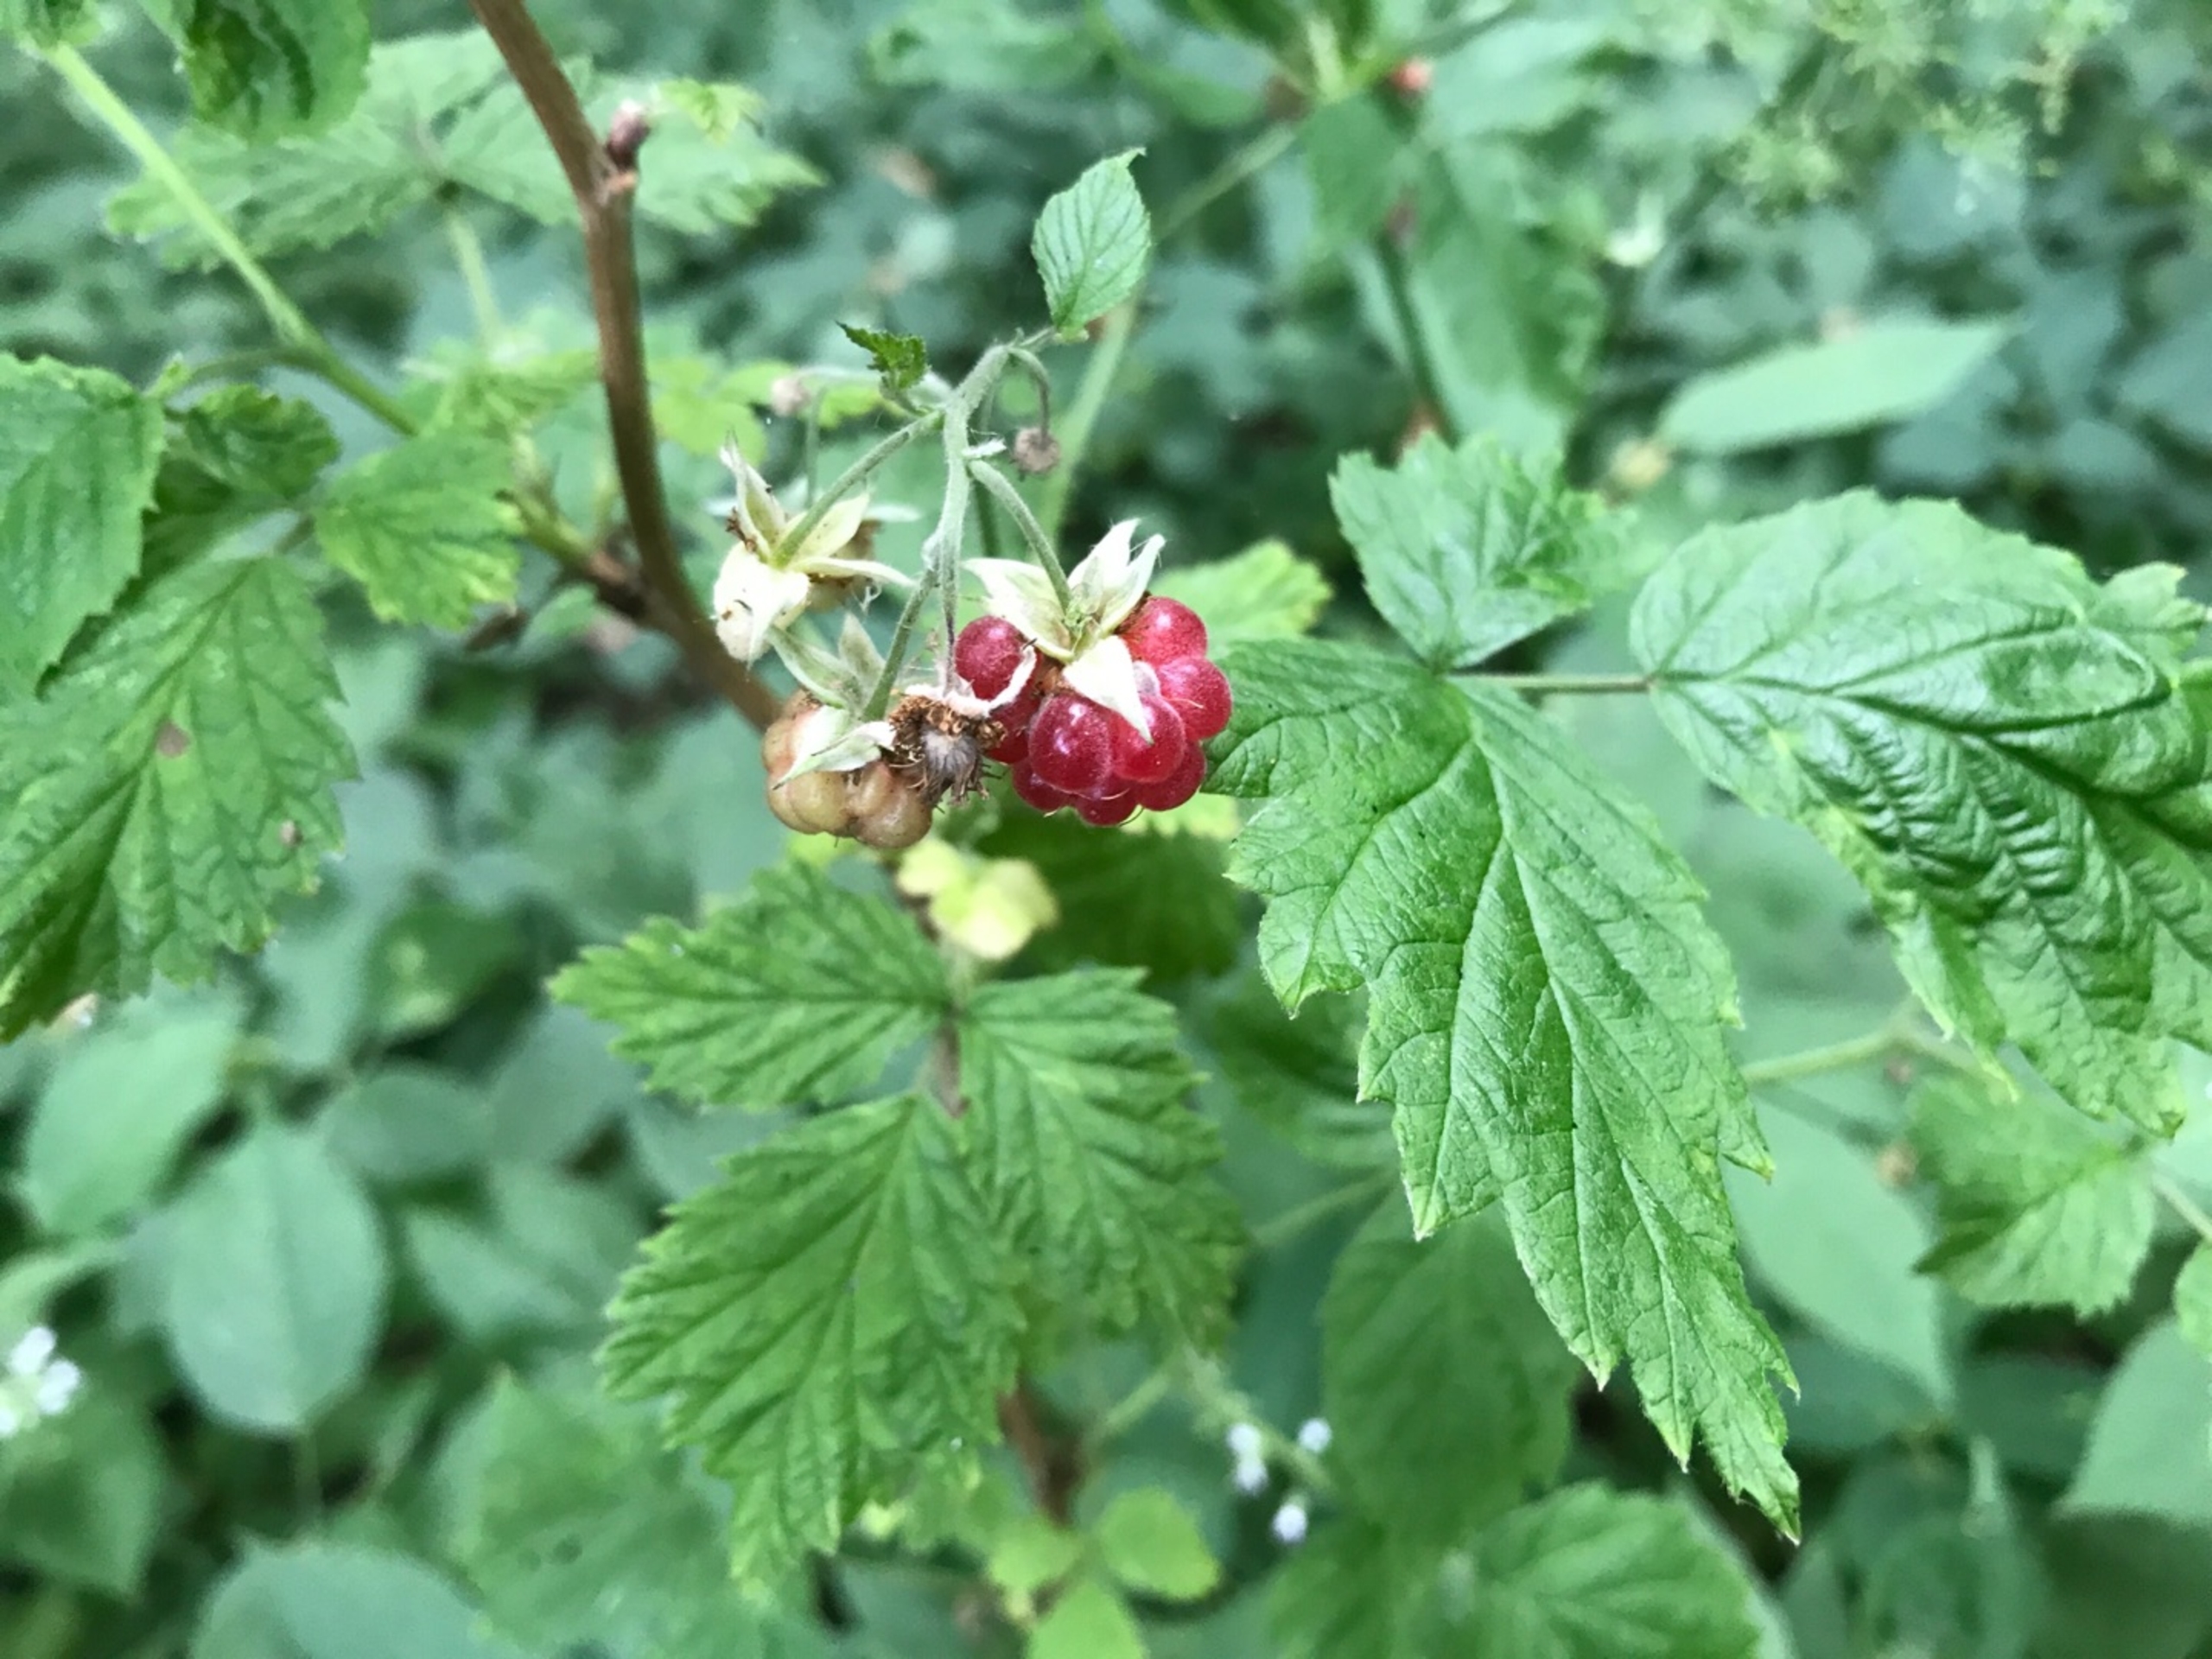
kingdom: Plantae
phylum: Tracheophyta
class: Magnoliopsida
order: Rosales
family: Rosaceae
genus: Rubus
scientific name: Rubus idaeus
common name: Hindbær
